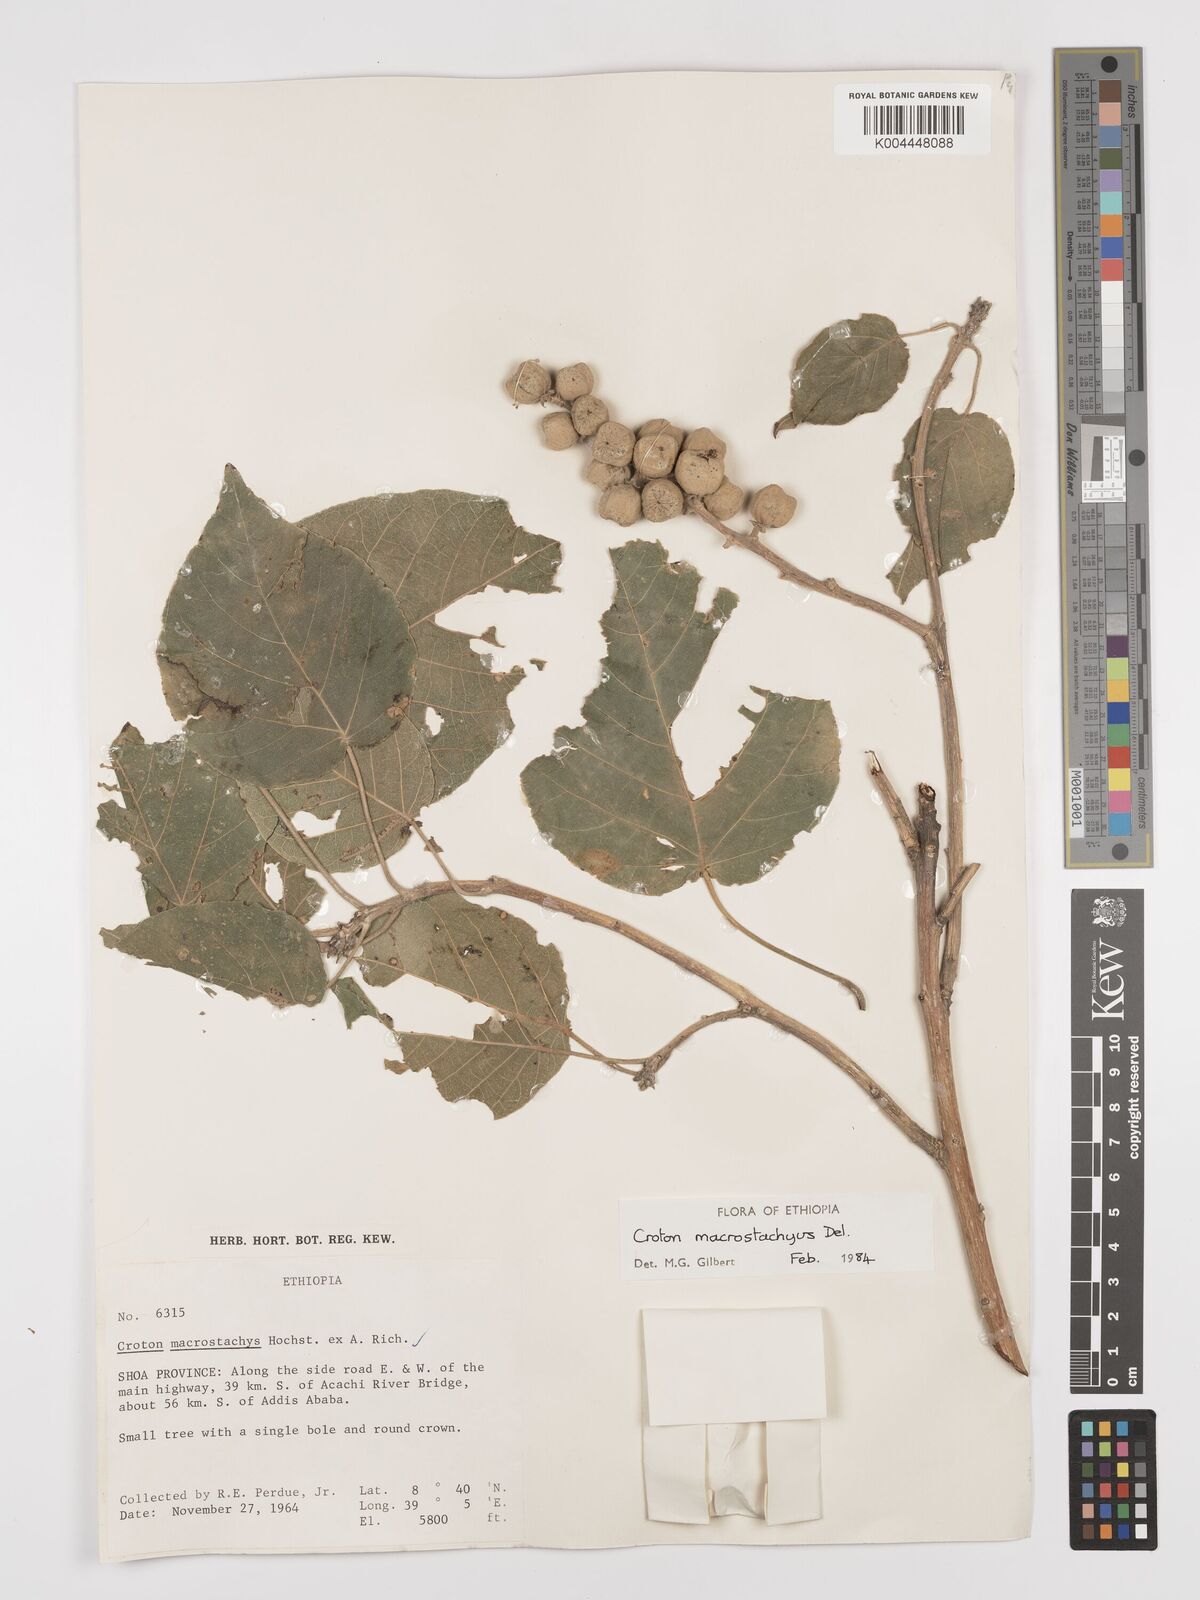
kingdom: Plantae
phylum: Tracheophyta
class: Magnoliopsida
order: Malpighiales
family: Euphorbiaceae
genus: Croton
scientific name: Croton macrostachyus
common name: Mutundu
